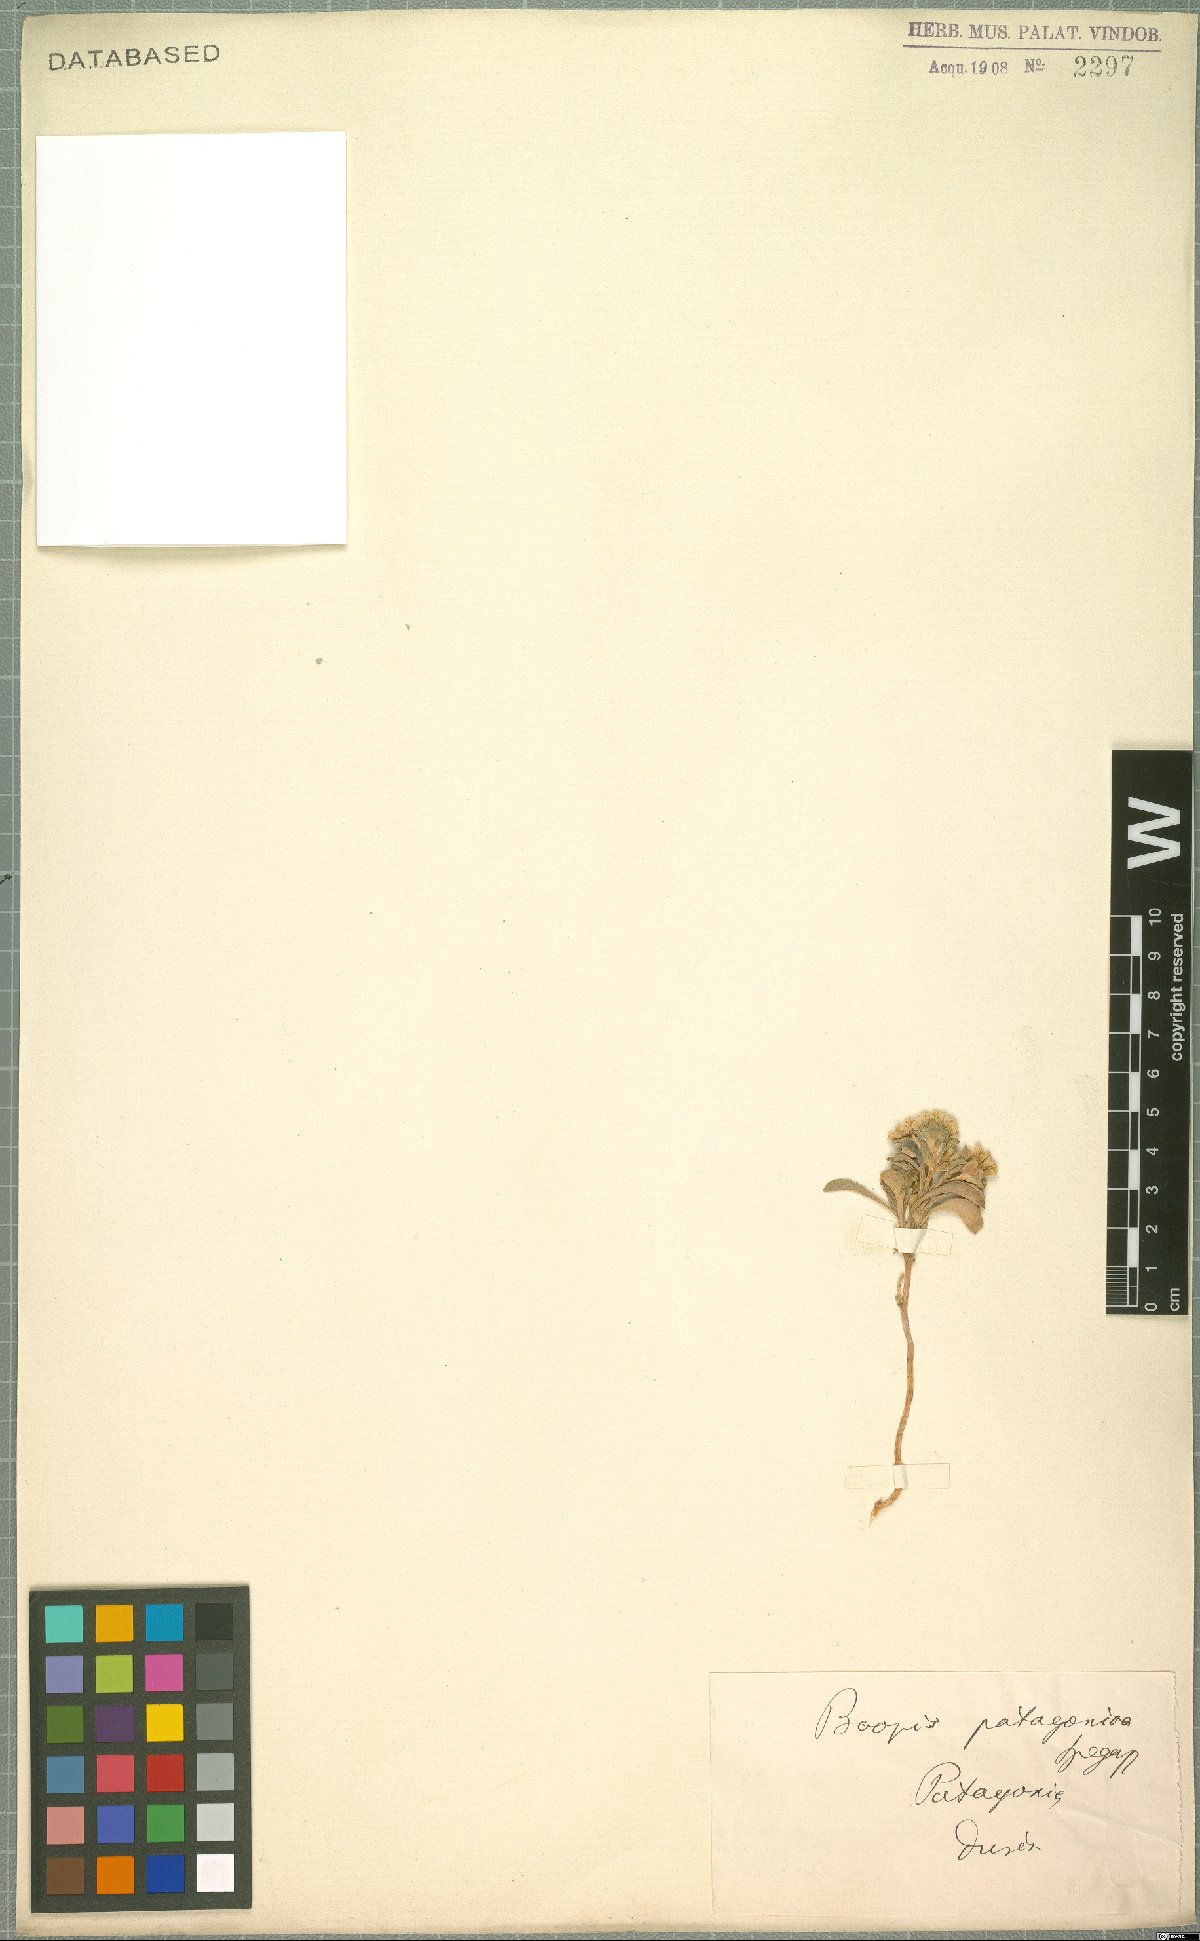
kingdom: Plantae
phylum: Tracheophyta
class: Magnoliopsida
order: Asterales
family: Calyceraceae
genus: Moschopsis
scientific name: Moschopsis patagonica
